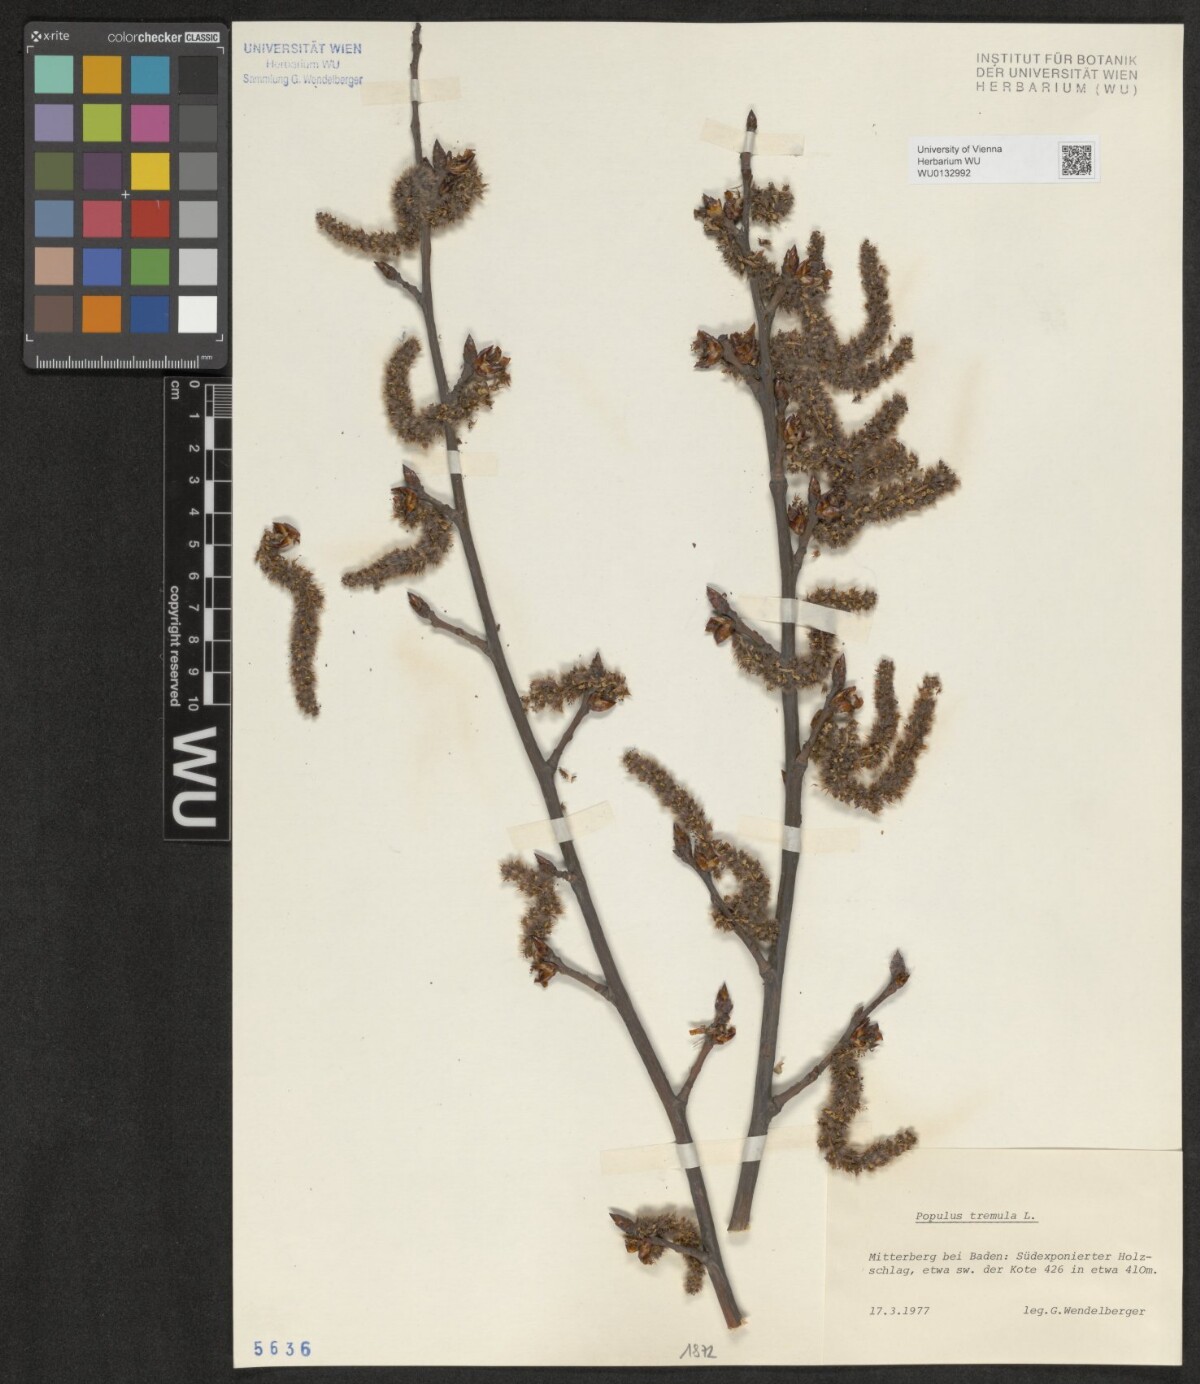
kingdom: Plantae
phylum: Tracheophyta
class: Magnoliopsida
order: Malpighiales
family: Salicaceae
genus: Populus
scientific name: Populus tremula
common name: European aspen
